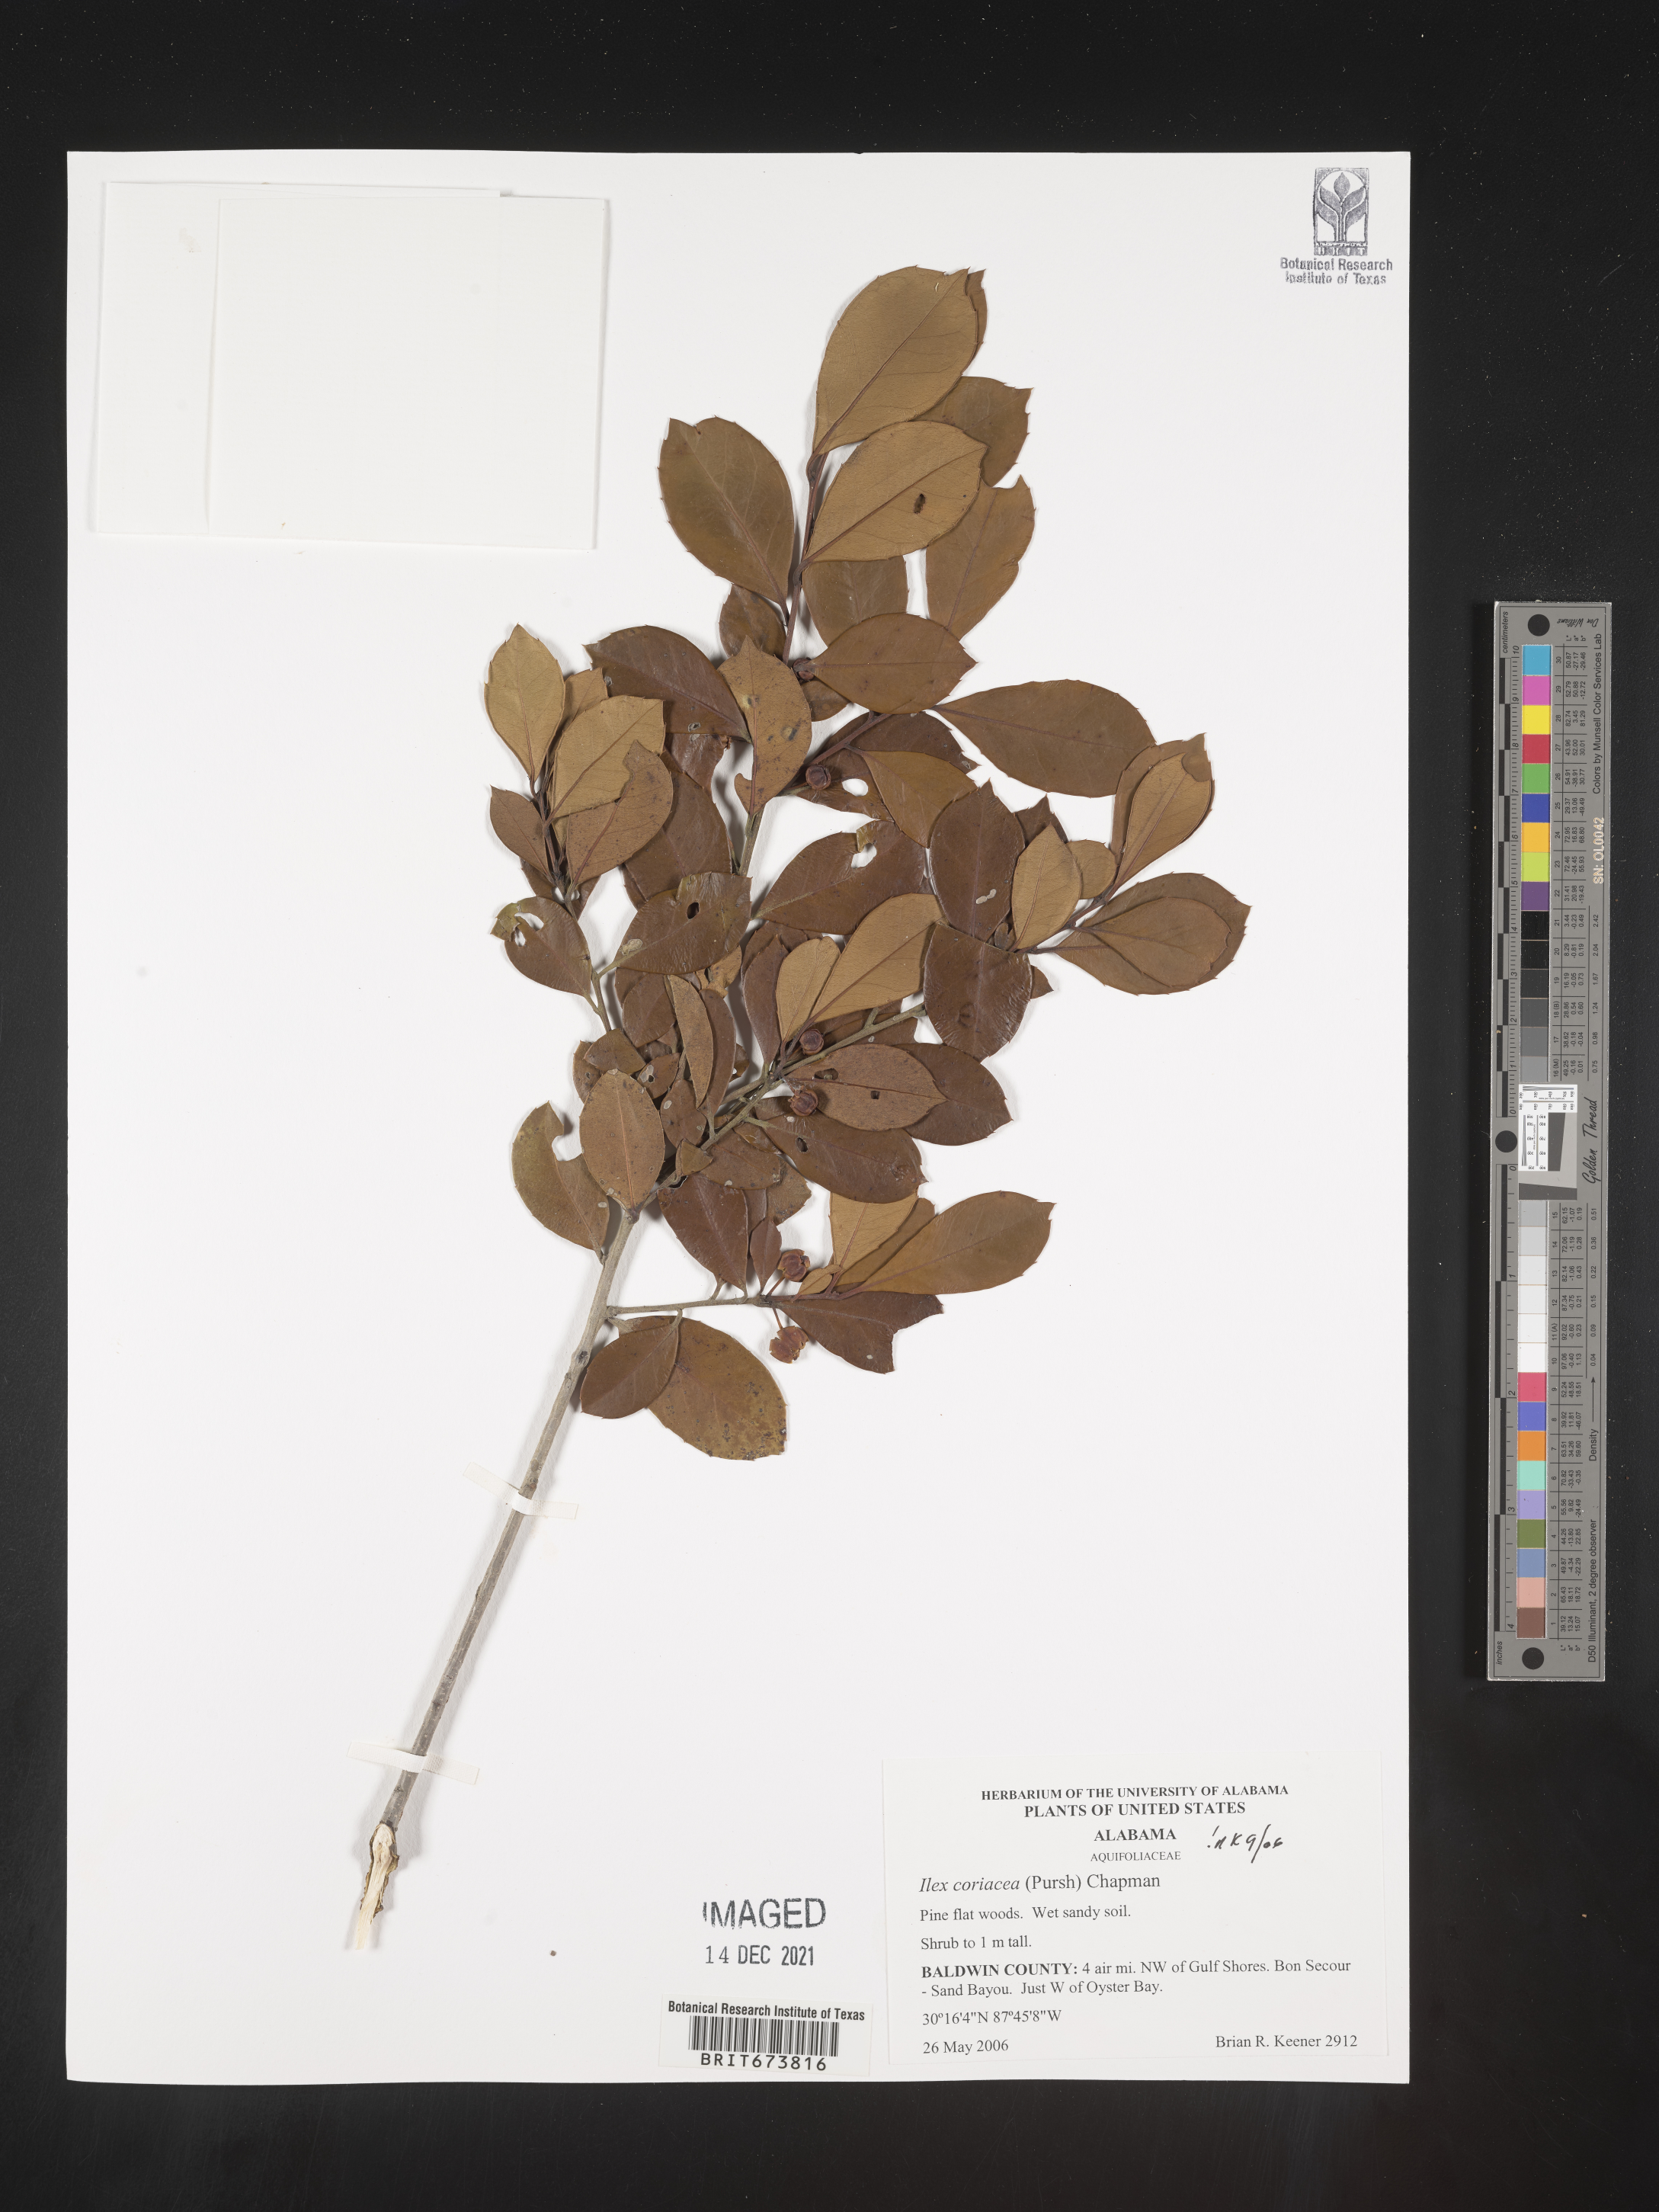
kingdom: Plantae
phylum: Tracheophyta
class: Magnoliopsida
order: Aquifoliales
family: Aquifoliaceae
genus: Ilex
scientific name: Ilex coriacea
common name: Sweet gallberry
